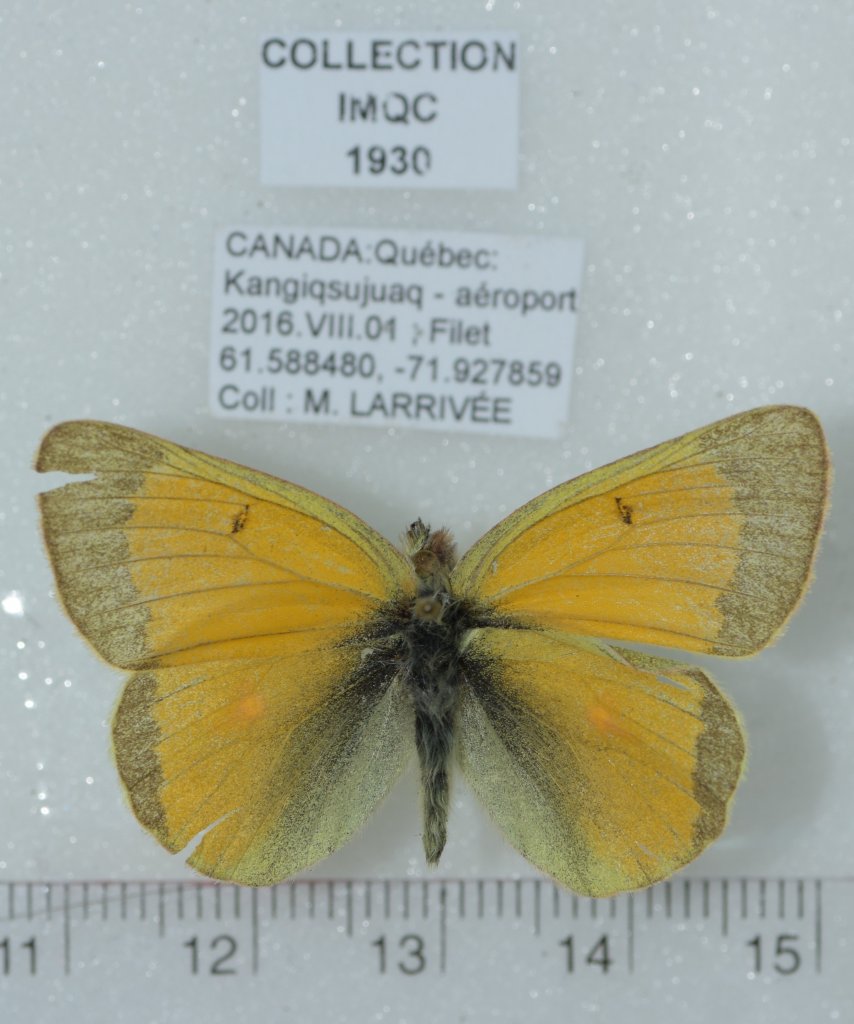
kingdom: Animalia
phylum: Arthropoda
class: Insecta
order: Lepidoptera
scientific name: Lepidoptera
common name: Butterflies
